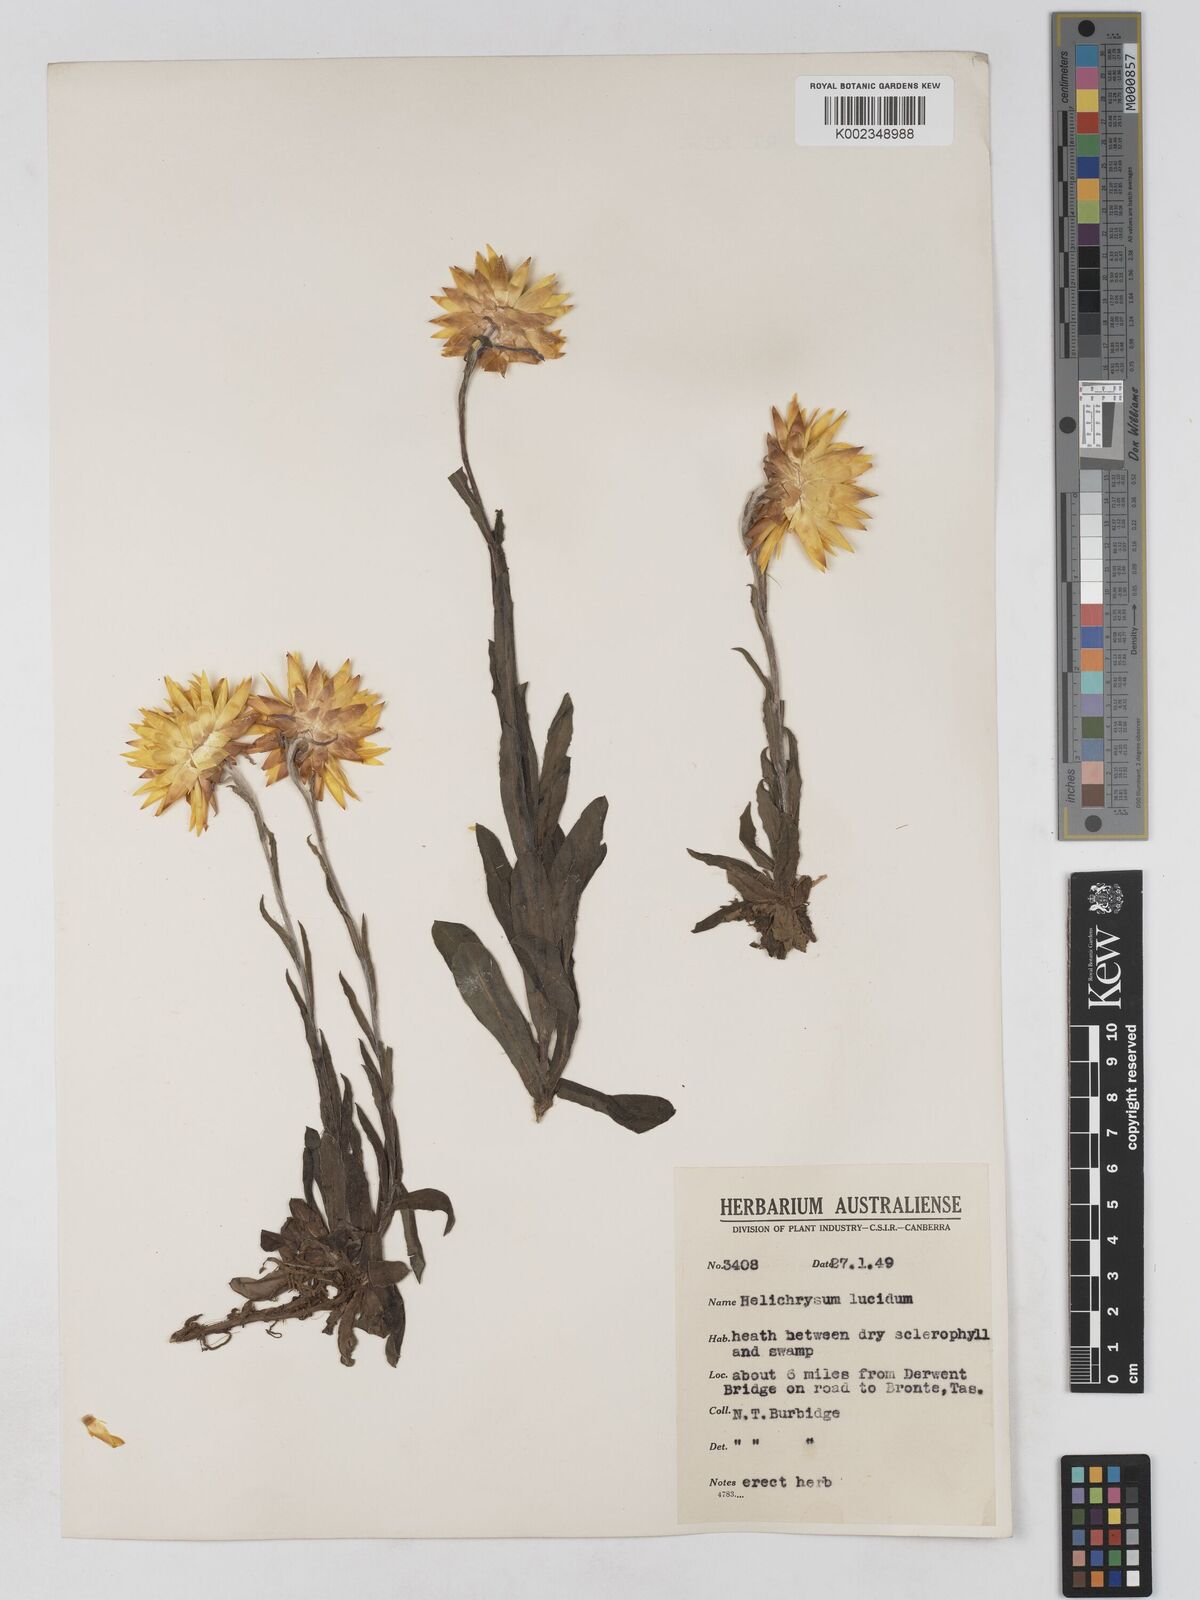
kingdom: Plantae
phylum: Tracheophyta
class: Magnoliopsida
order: Asterales
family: Asteraceae
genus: Xerochrysum
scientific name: Xerochrysum bracteatum
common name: Bracted strawflower
